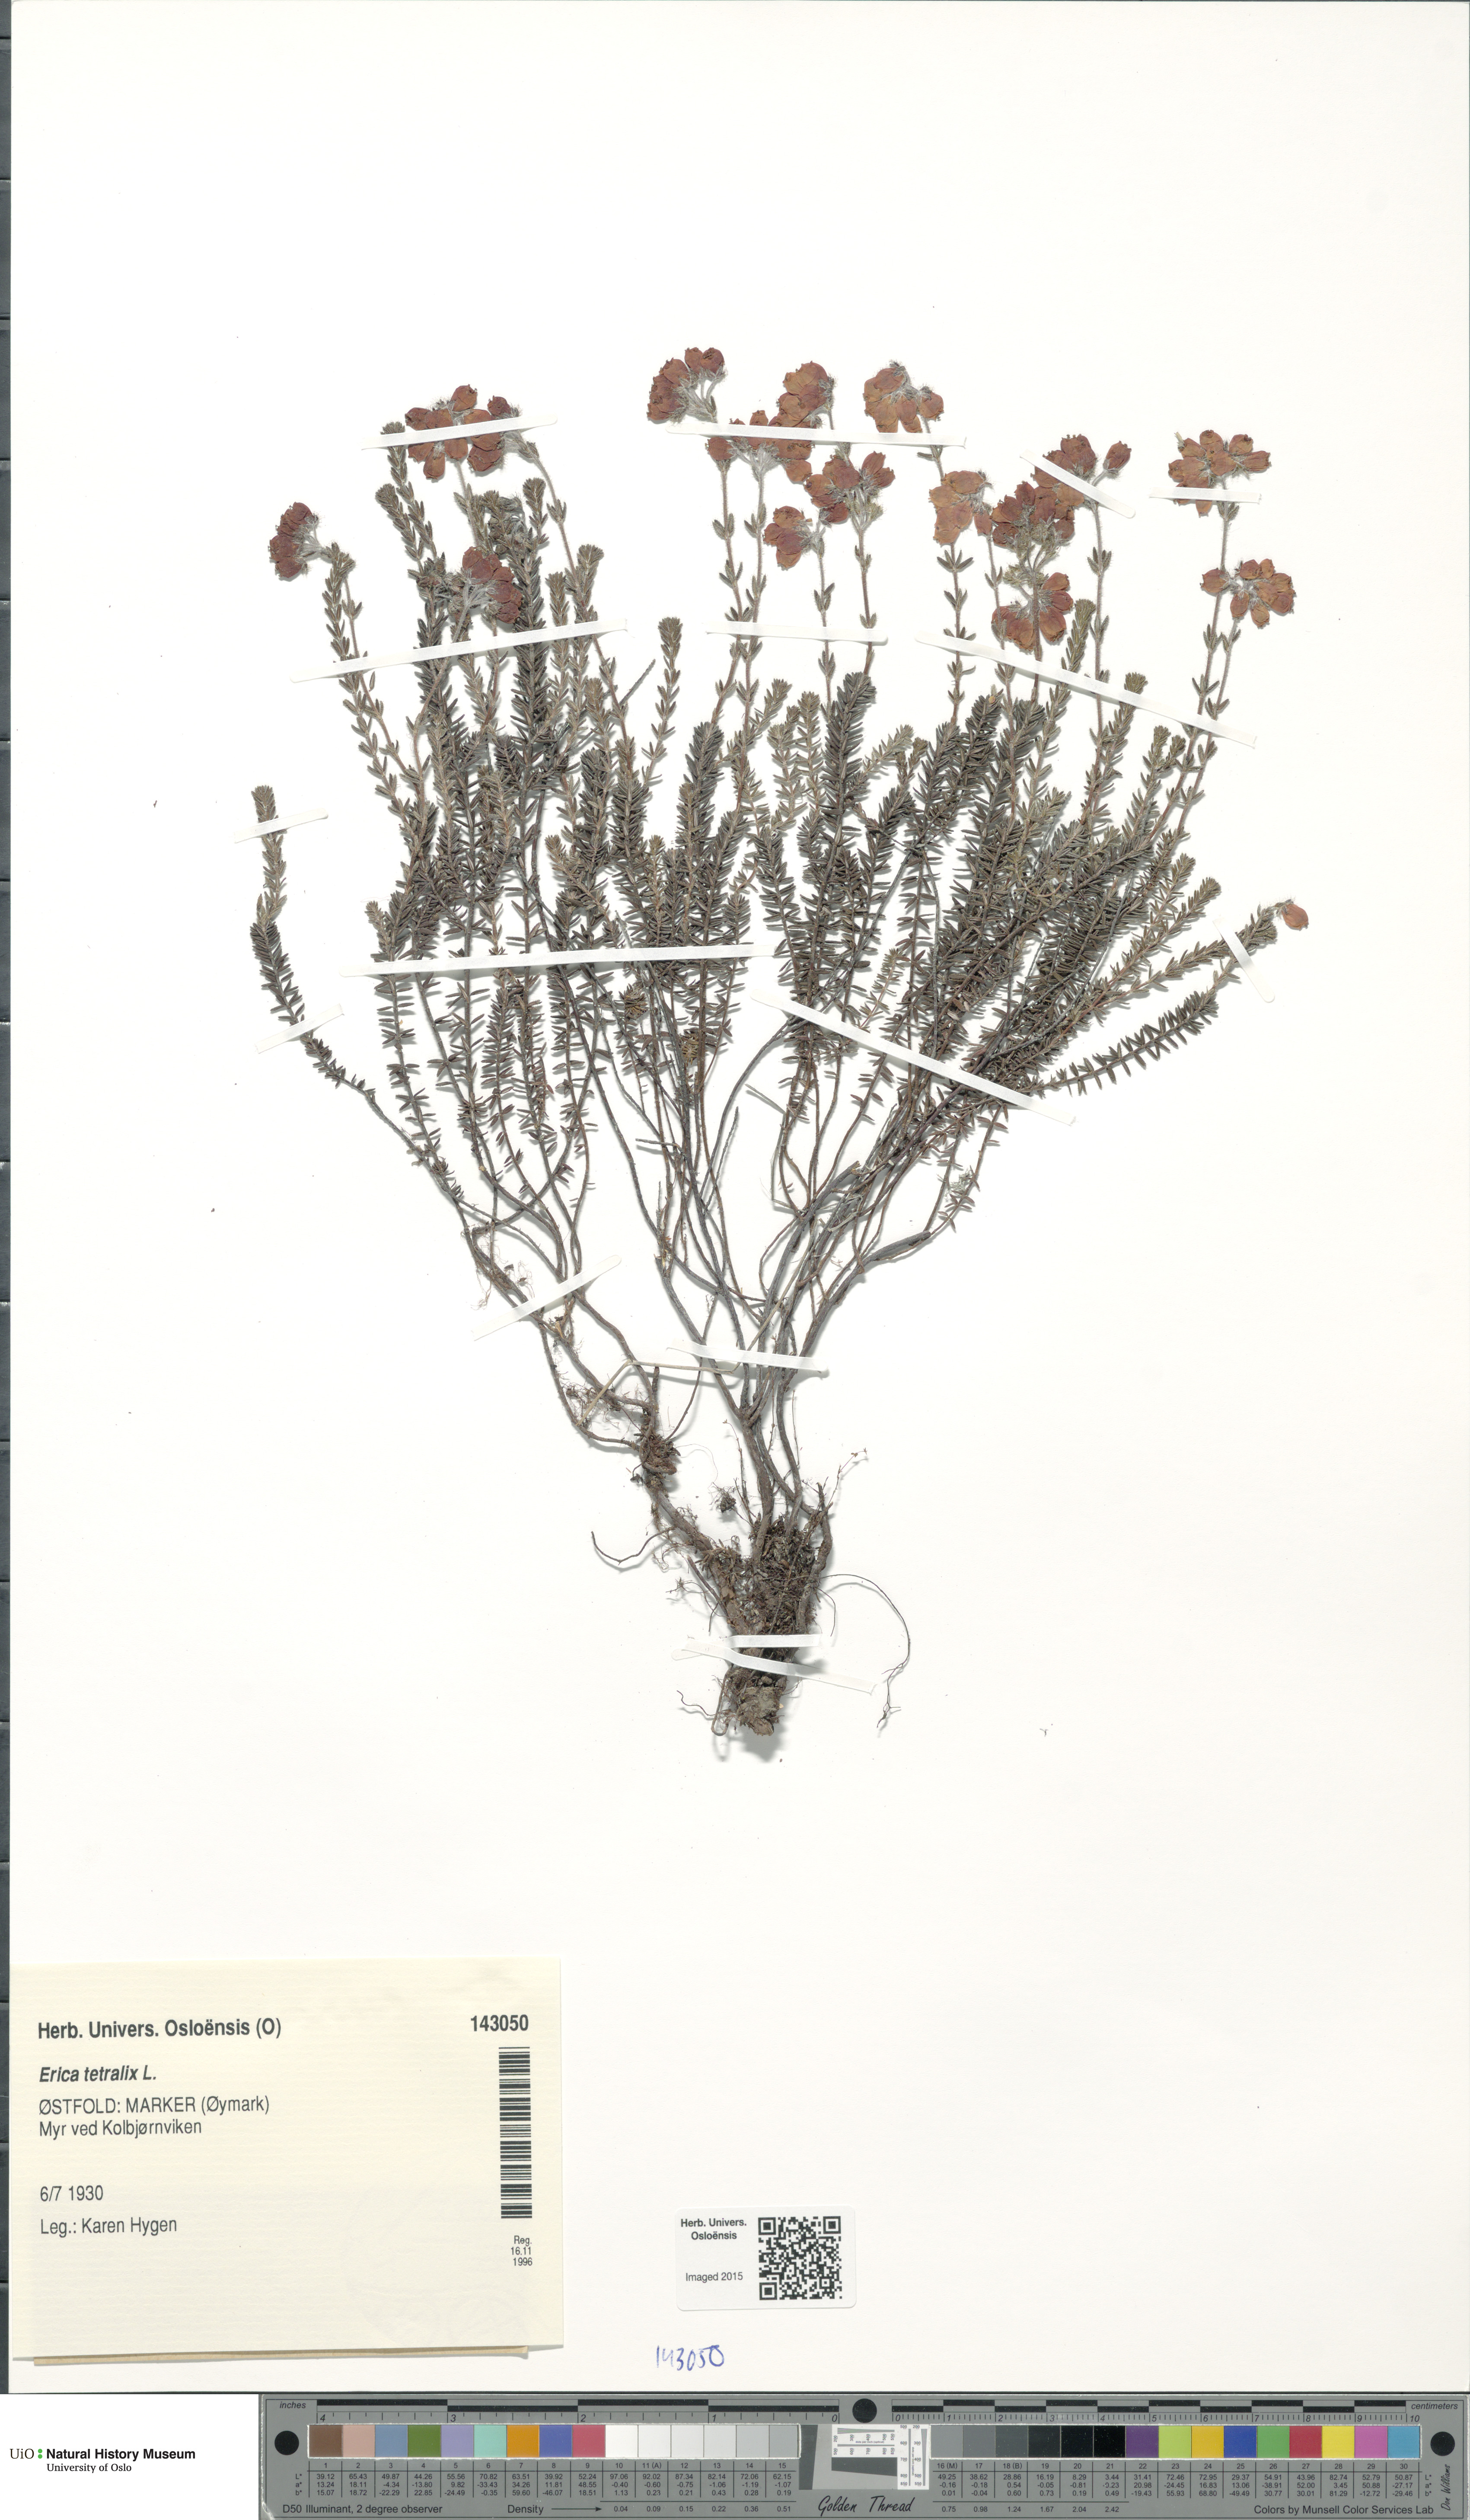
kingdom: Plantae
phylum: Tracheophyta
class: Magnoliopsida
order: Ericales
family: Ericaceae
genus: Erica
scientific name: Erica tetralix
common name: Cross-leaved heath
